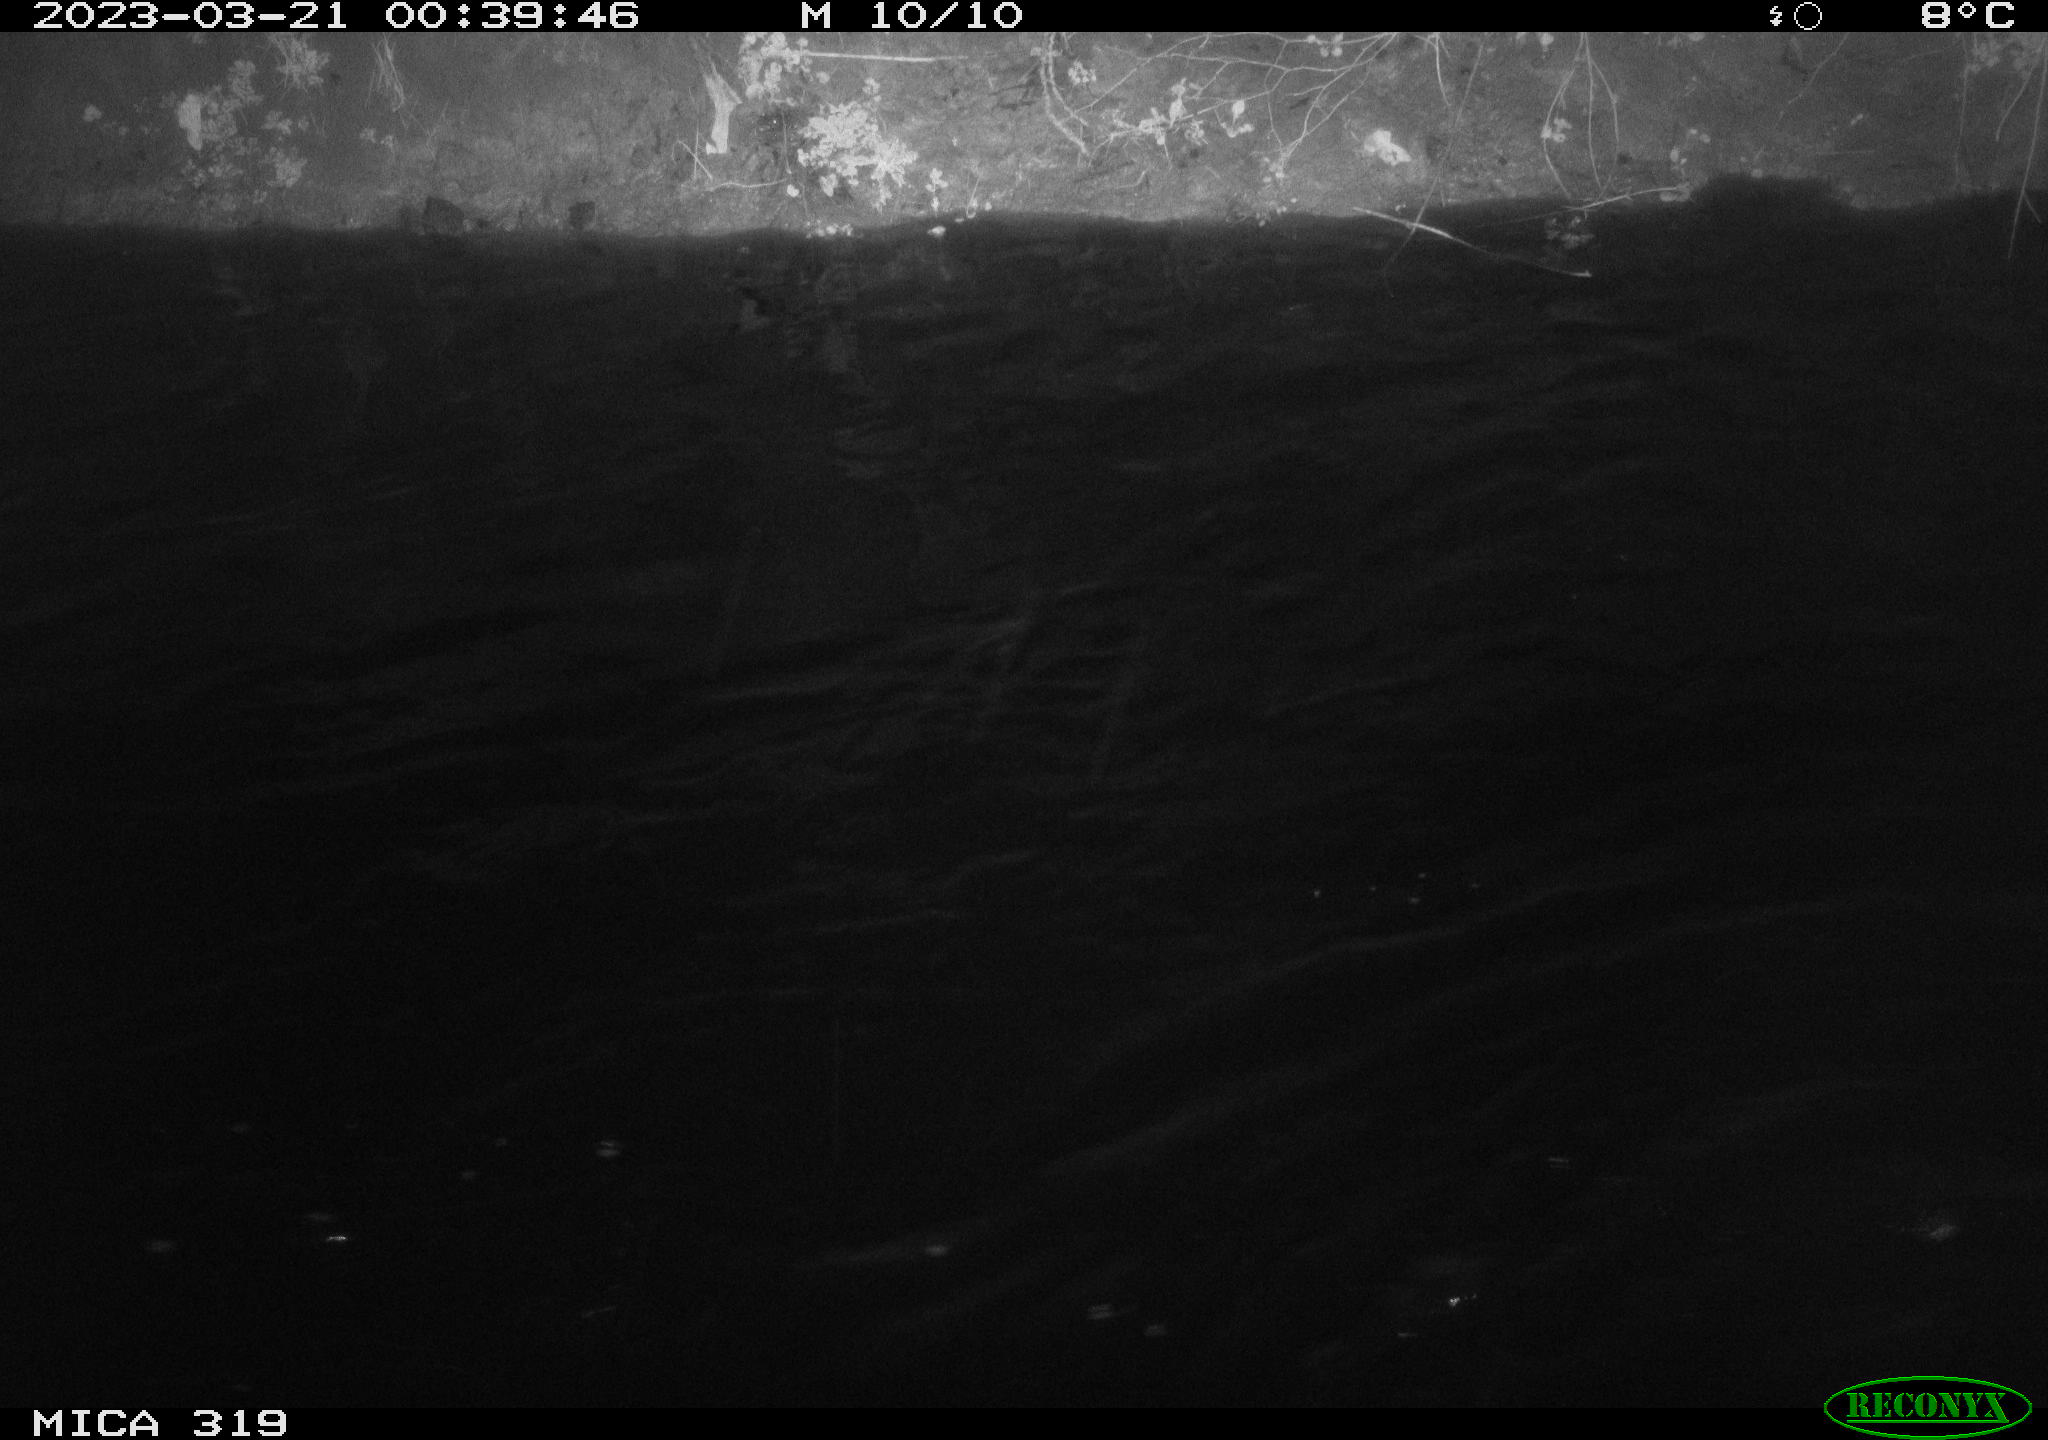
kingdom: Animalia
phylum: Chordata
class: Aves
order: Anseriformes
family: Anatidae
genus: Anas
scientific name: Anas
